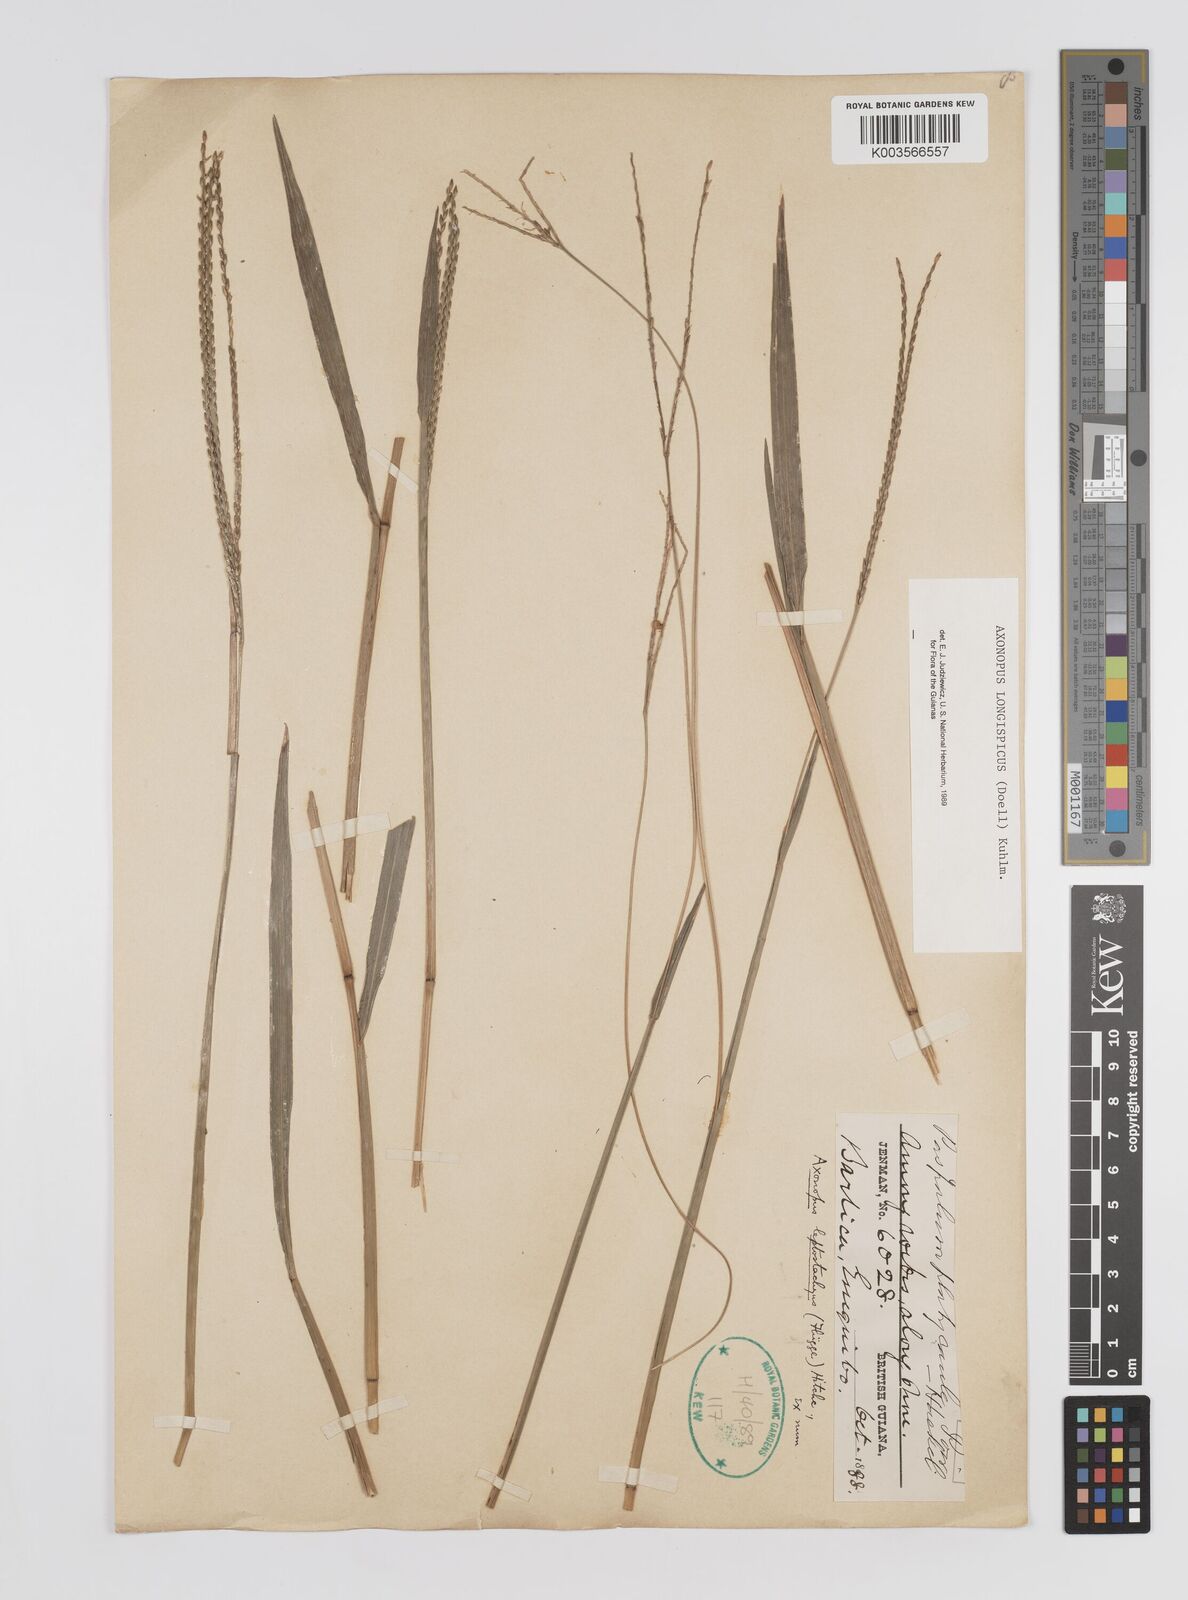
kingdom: Plantae
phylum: Tracheophyta
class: Liliopsida
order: Poales
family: Poaceae
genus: Axonopus
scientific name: Axonopus longispicus
